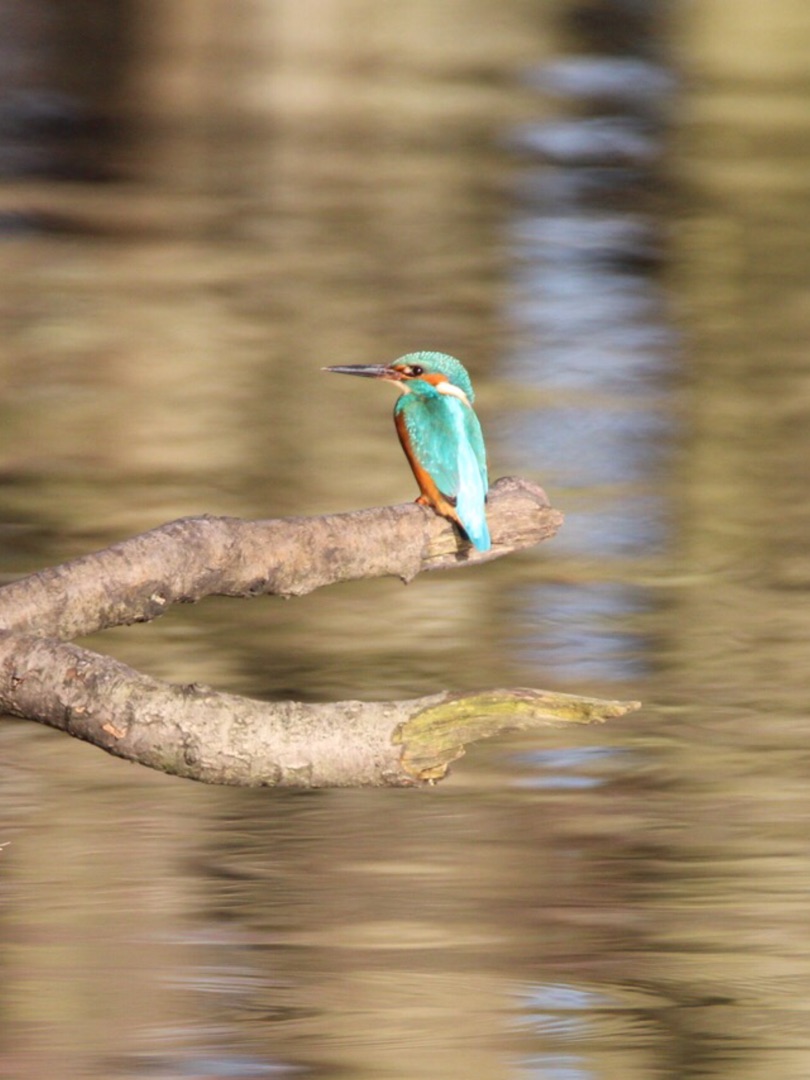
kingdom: Animalia
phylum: Chordata
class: Aves
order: Coraciiformes
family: Alcedinidae
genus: Alcedo
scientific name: Alcedo atthis
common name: Isfugl
